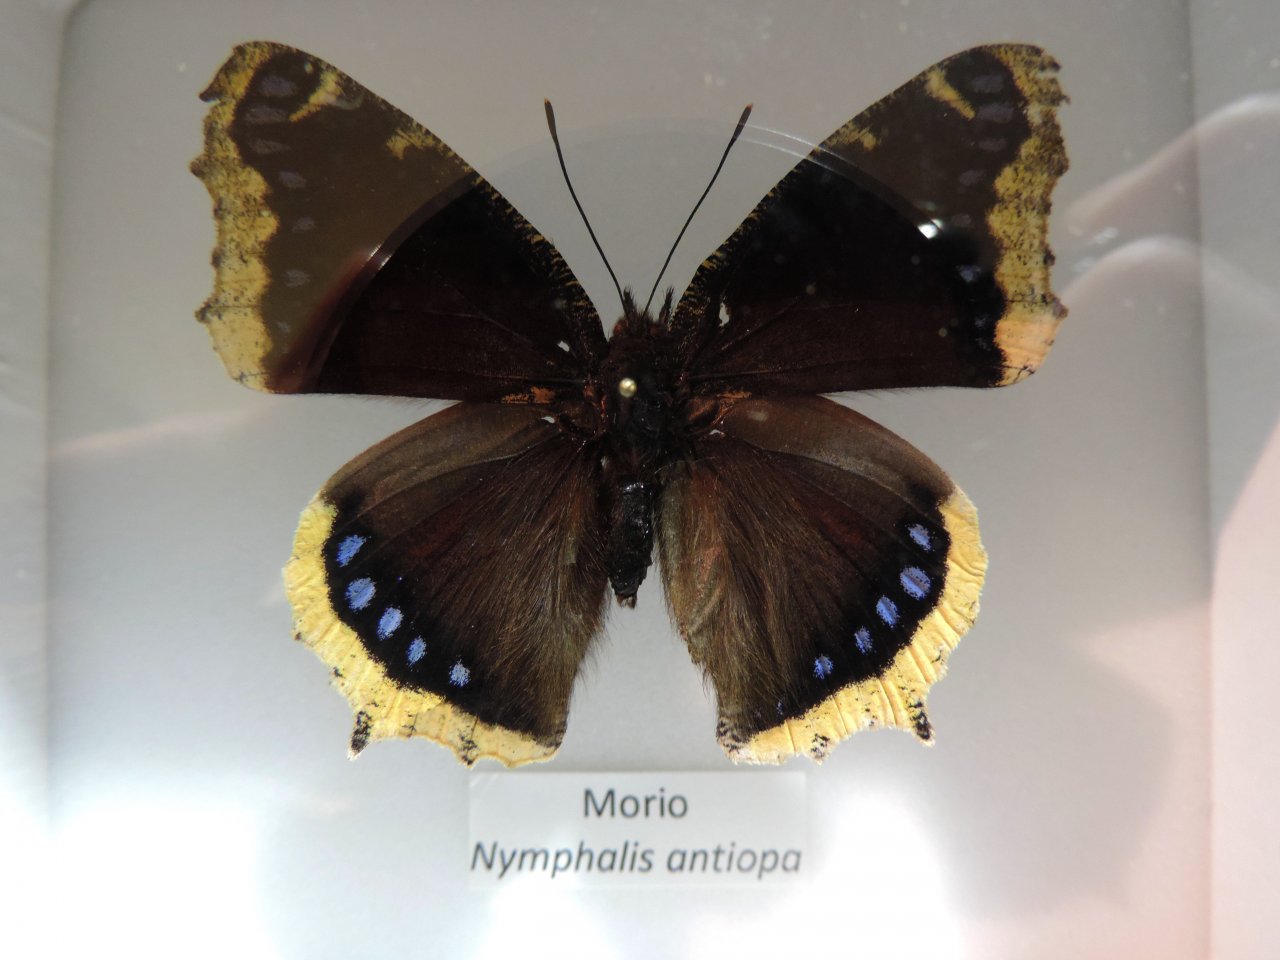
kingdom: Animalia
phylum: Arthropoda
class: Insecta
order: Lepidoptera
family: Nymphalidae
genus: Nymphalis
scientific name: Nymphalis antiopa
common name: Mourning Cloak
